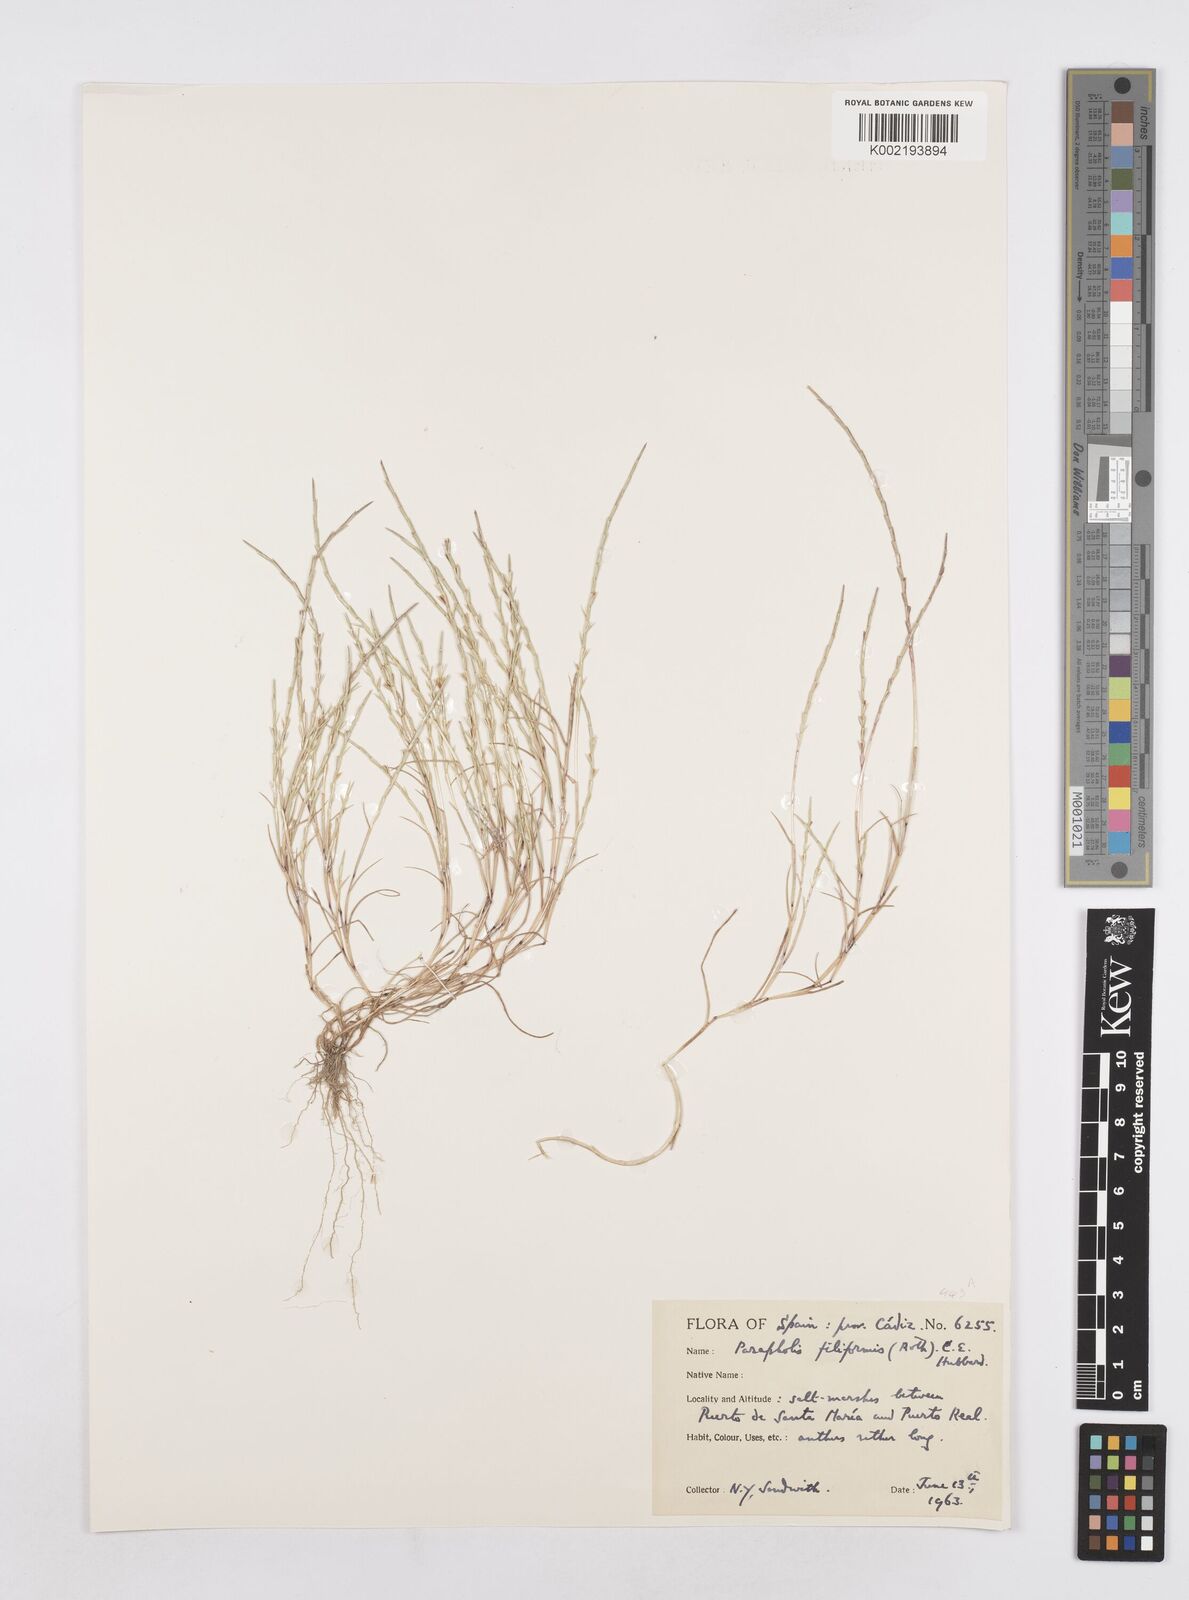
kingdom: Plantae
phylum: Tracheophyta
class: Liliopsida
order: Poales
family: Poaceae
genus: Parapholis
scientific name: Parapholis pycnantha
